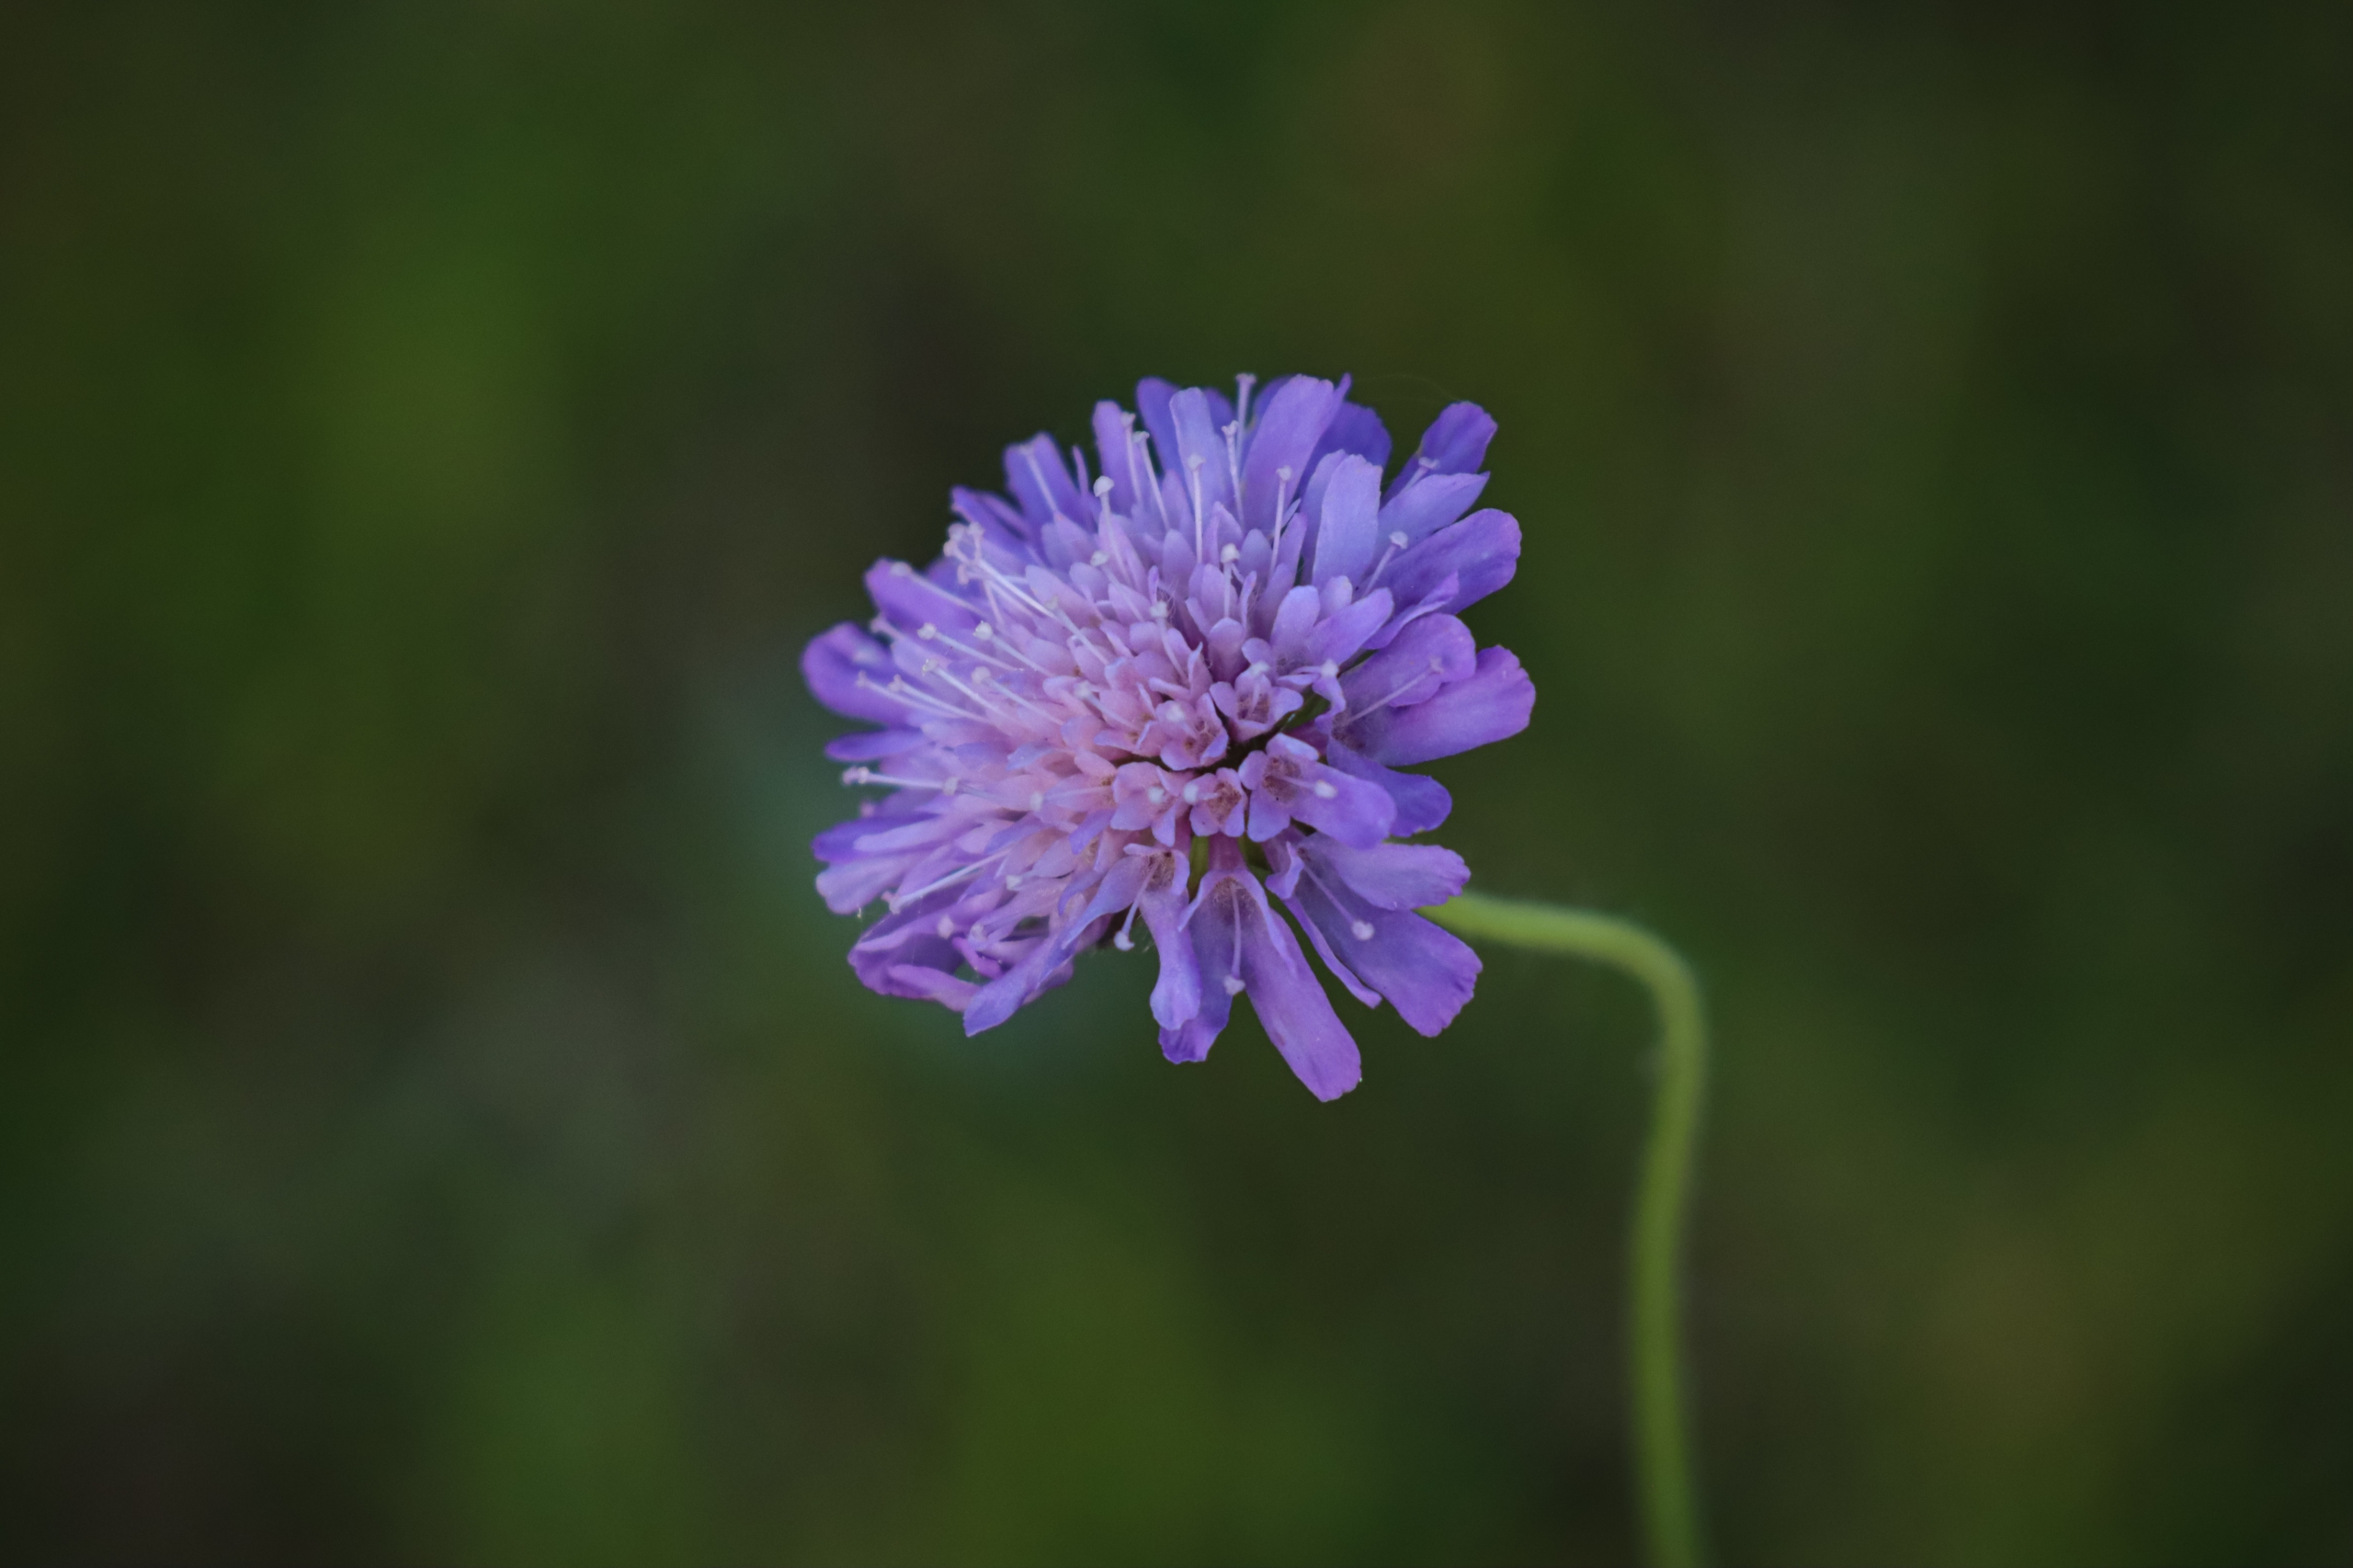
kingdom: Plantae
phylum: Tracheophyta
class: Magnoliopsida
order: Dipsacales
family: Caprifoliaceae
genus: Knautia
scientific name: Knautia arvensis
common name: Blåhat
